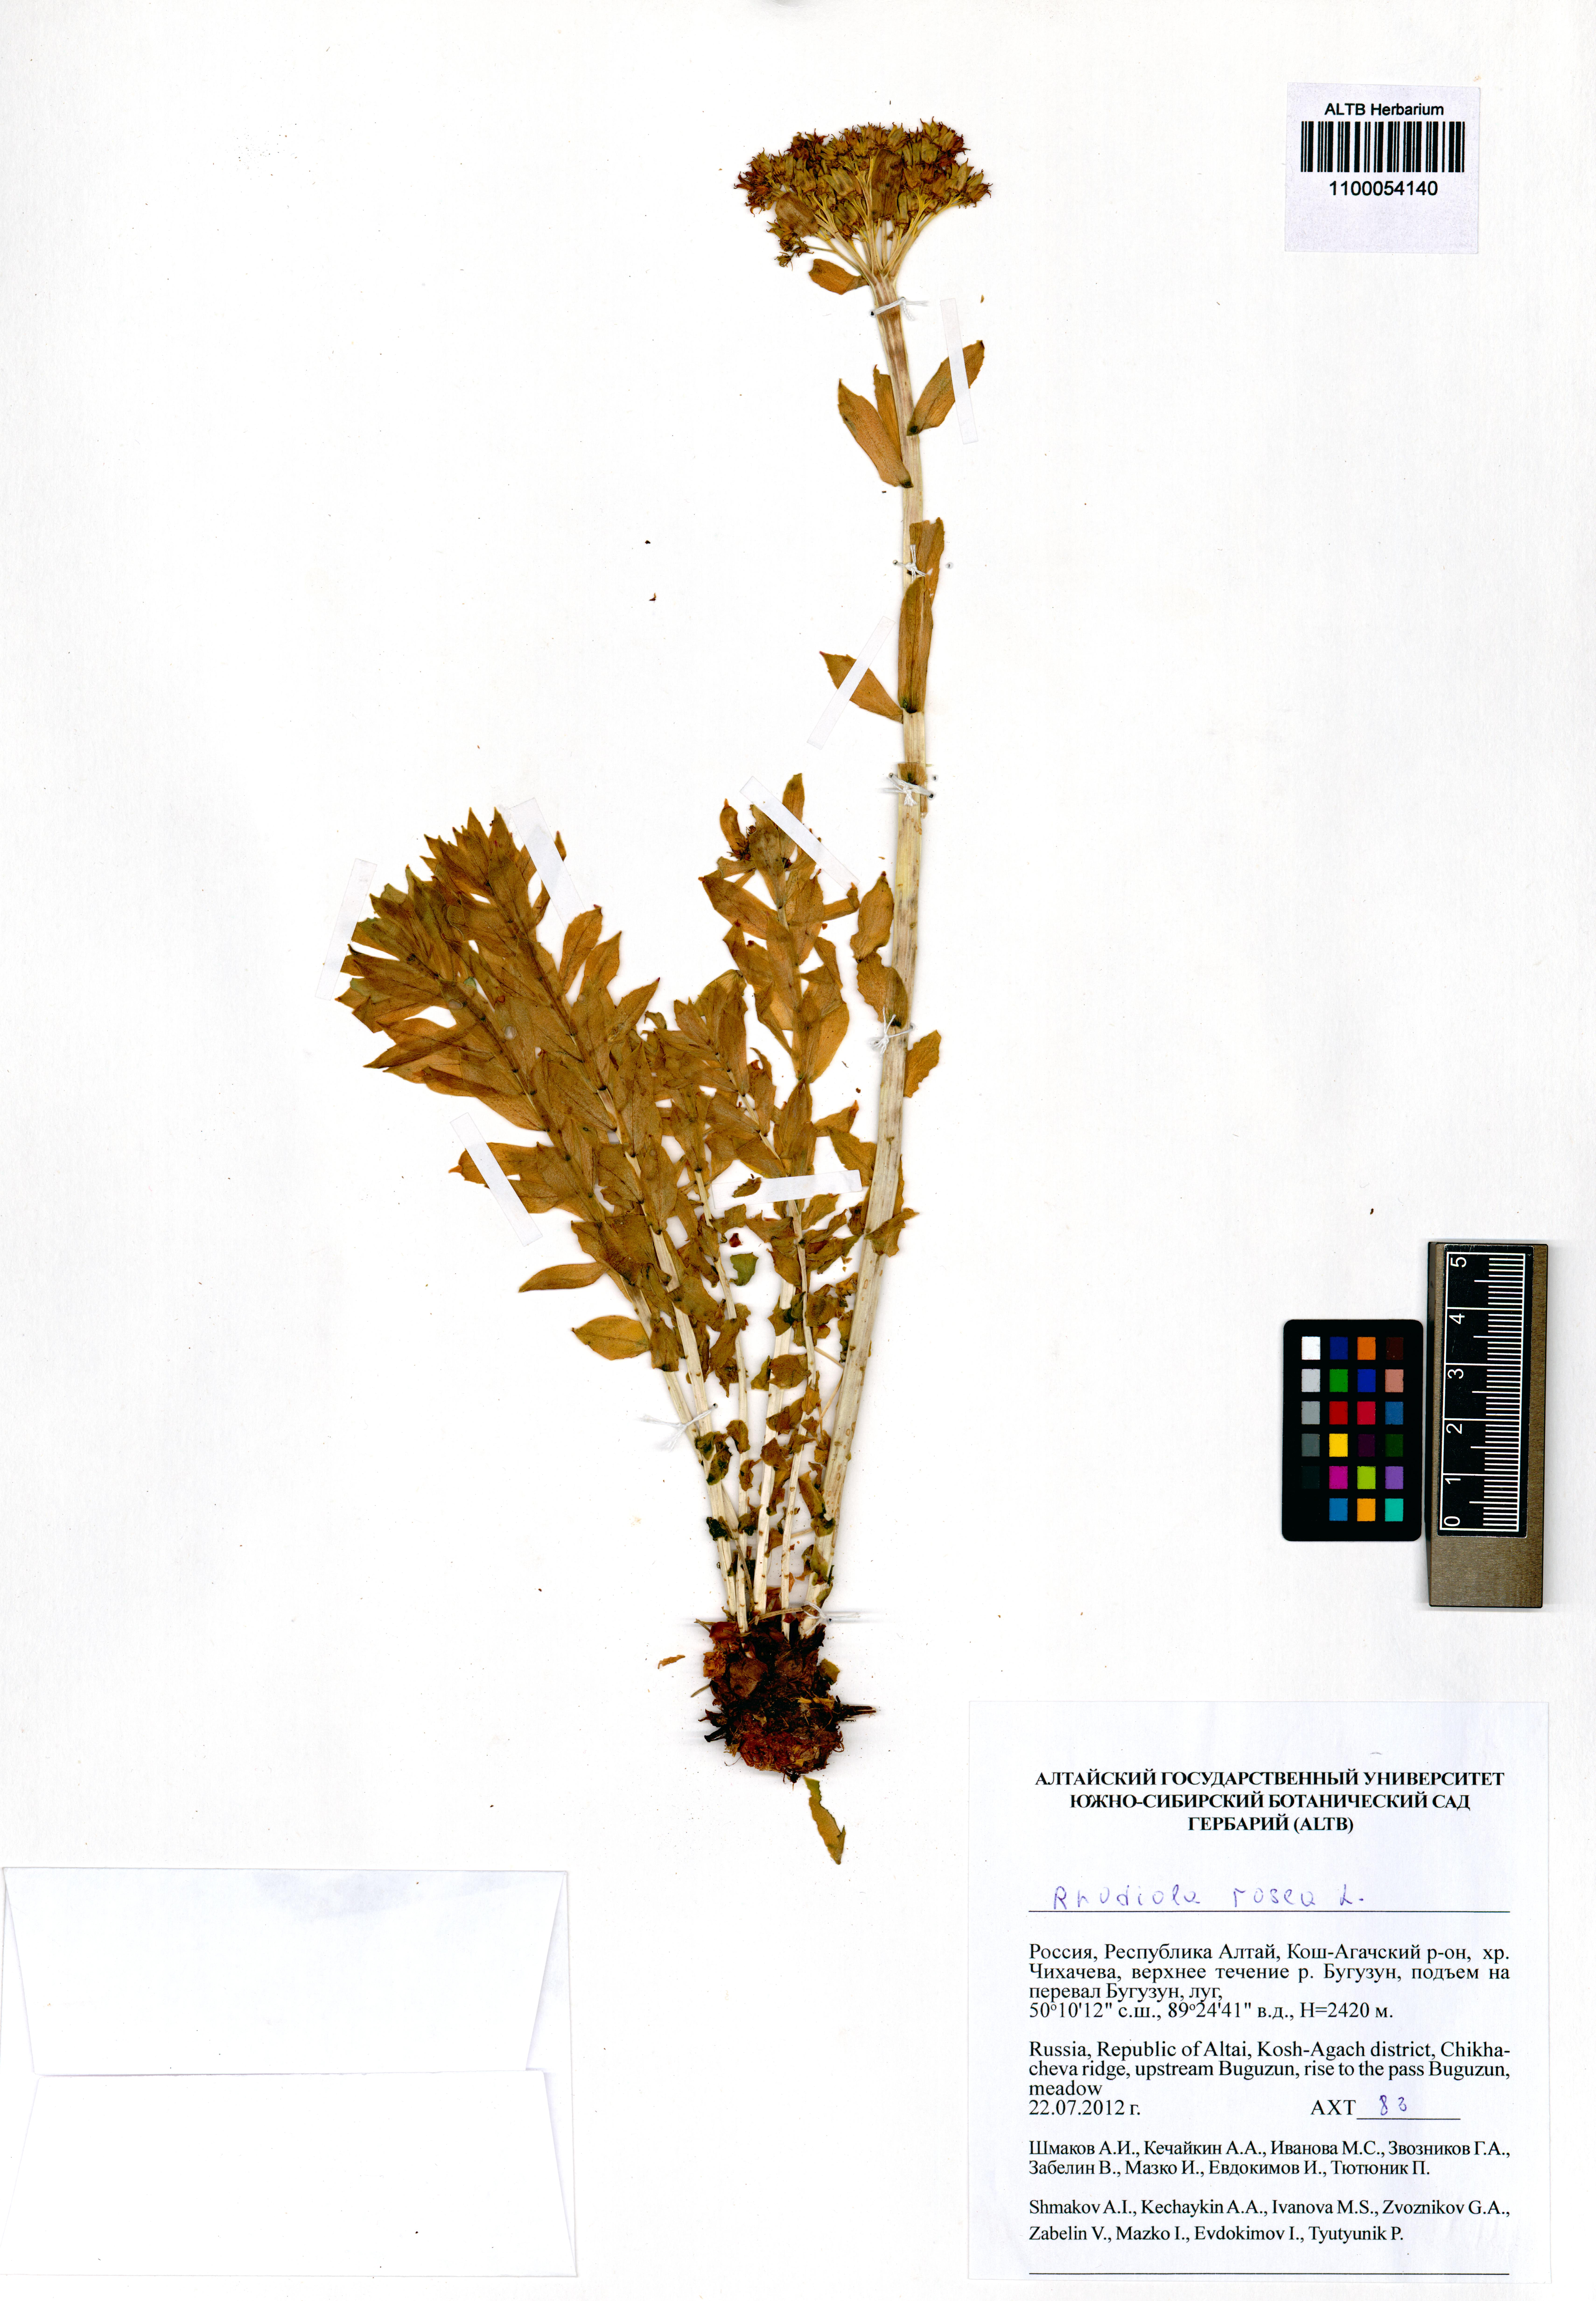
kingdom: Plantae
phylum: Tracheophyta
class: Magnoliopsida
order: Saxifragales
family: Crassulaceae
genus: Rhodiola
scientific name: Rhodiola rosea
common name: Roseroot
